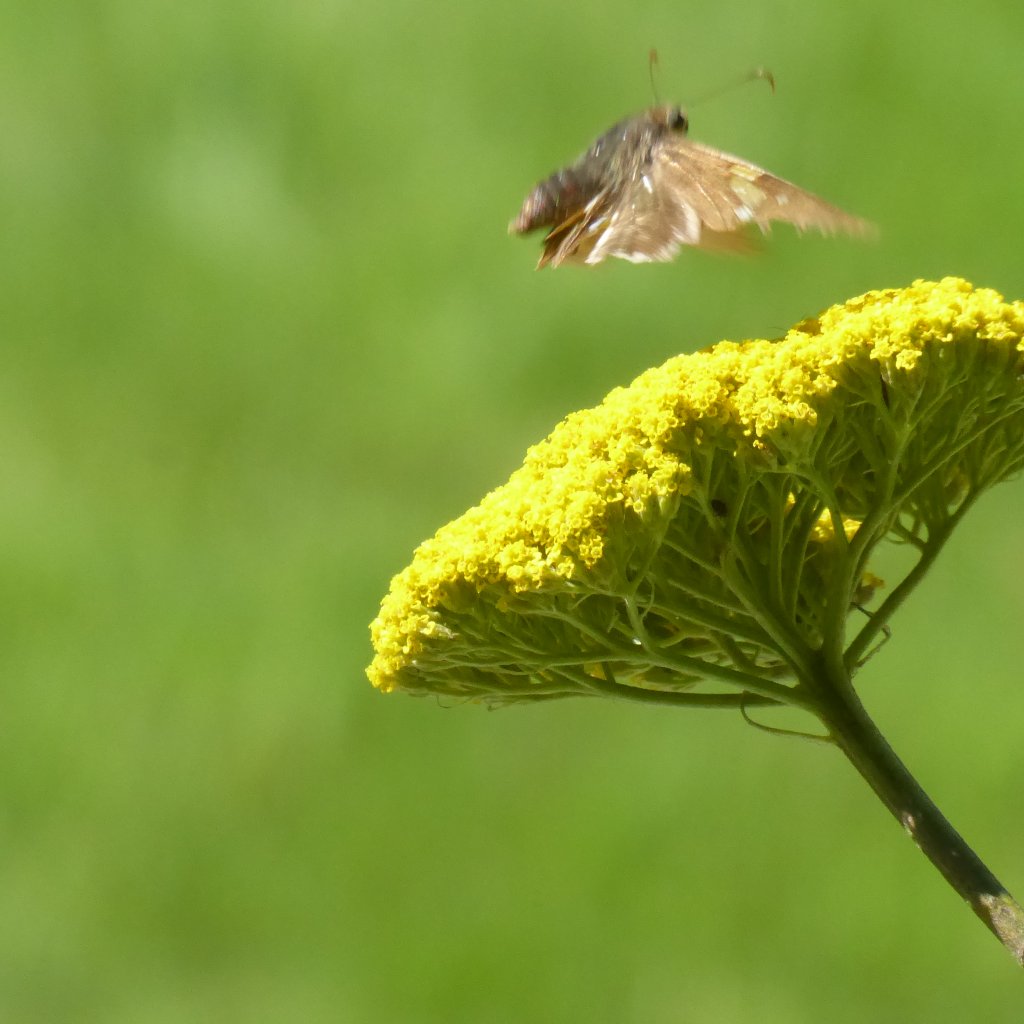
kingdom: Animalia
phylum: Arthropoda
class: Insecta
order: Lepidoptera
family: Hesperiidae
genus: Vernia
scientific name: Vernia verna
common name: Little Glassywing
